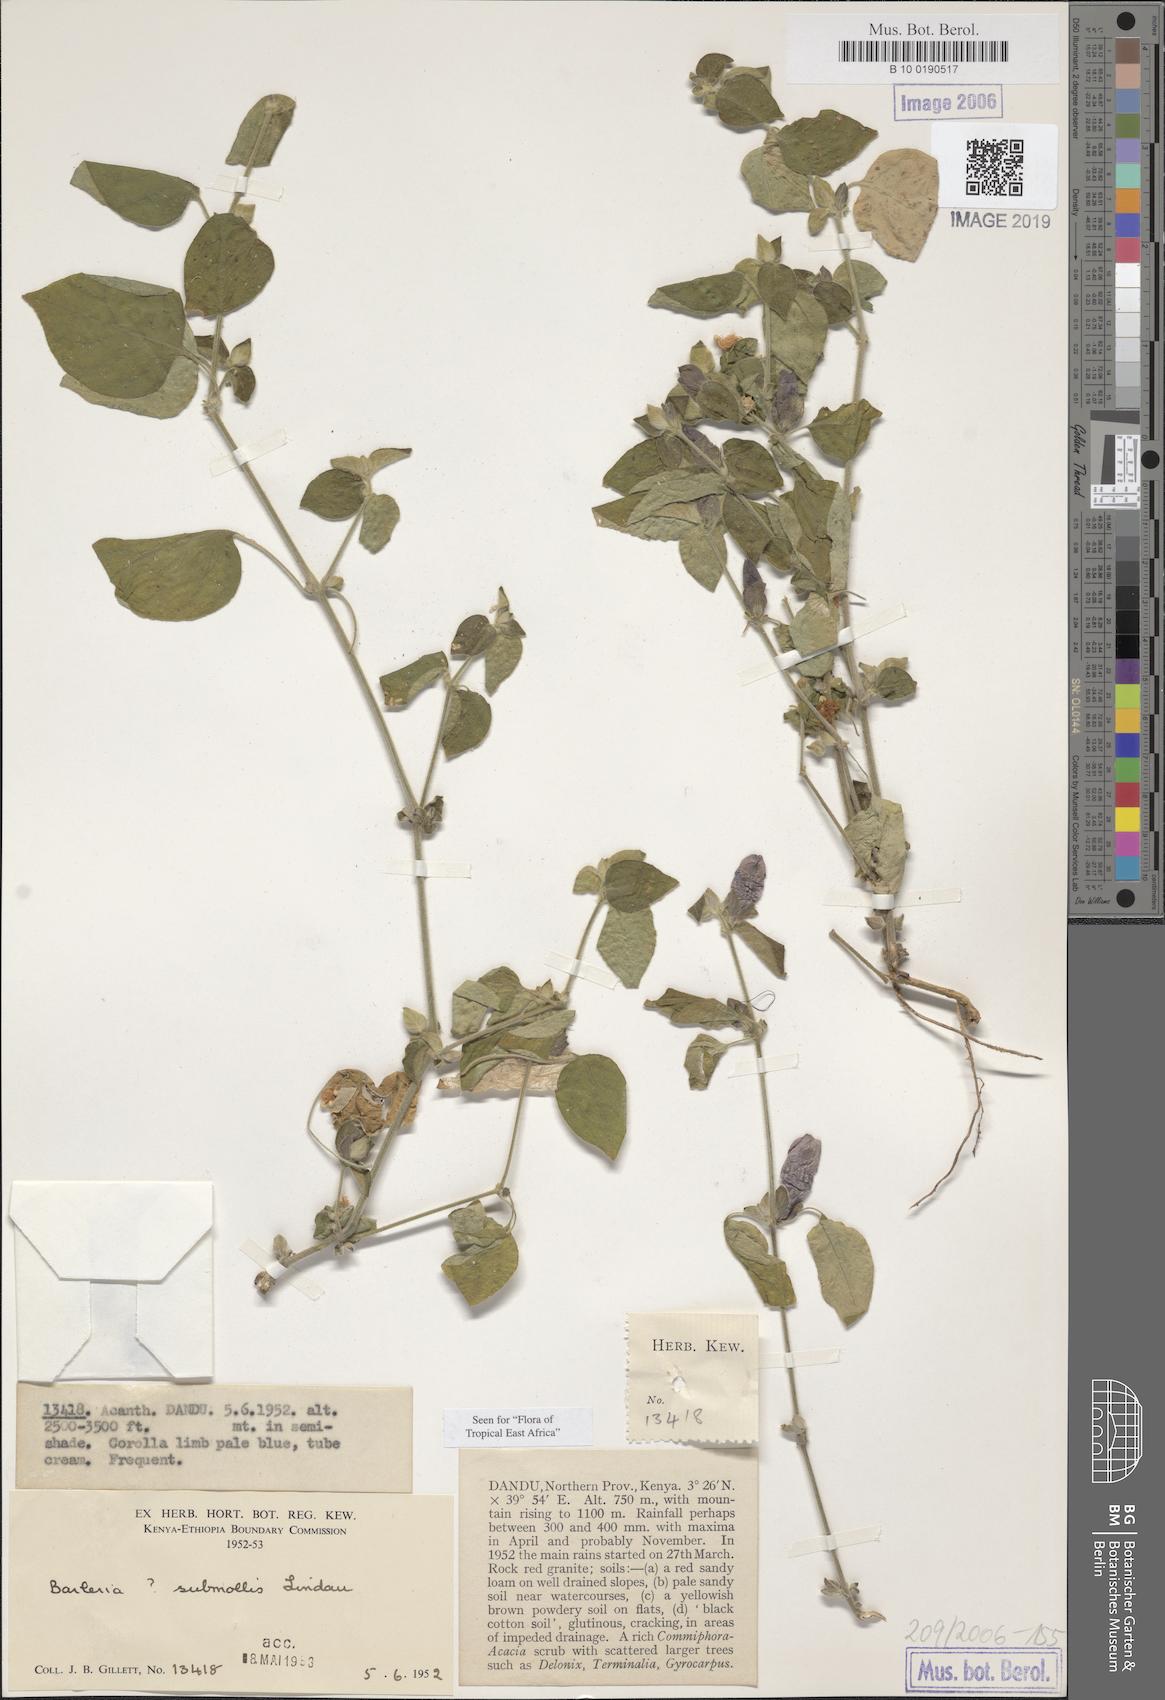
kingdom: Plantae
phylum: Tracheophyta
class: Magnoliopsida
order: Lamiales
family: Acanthaceae
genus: Barleria
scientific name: Barleria submollis
